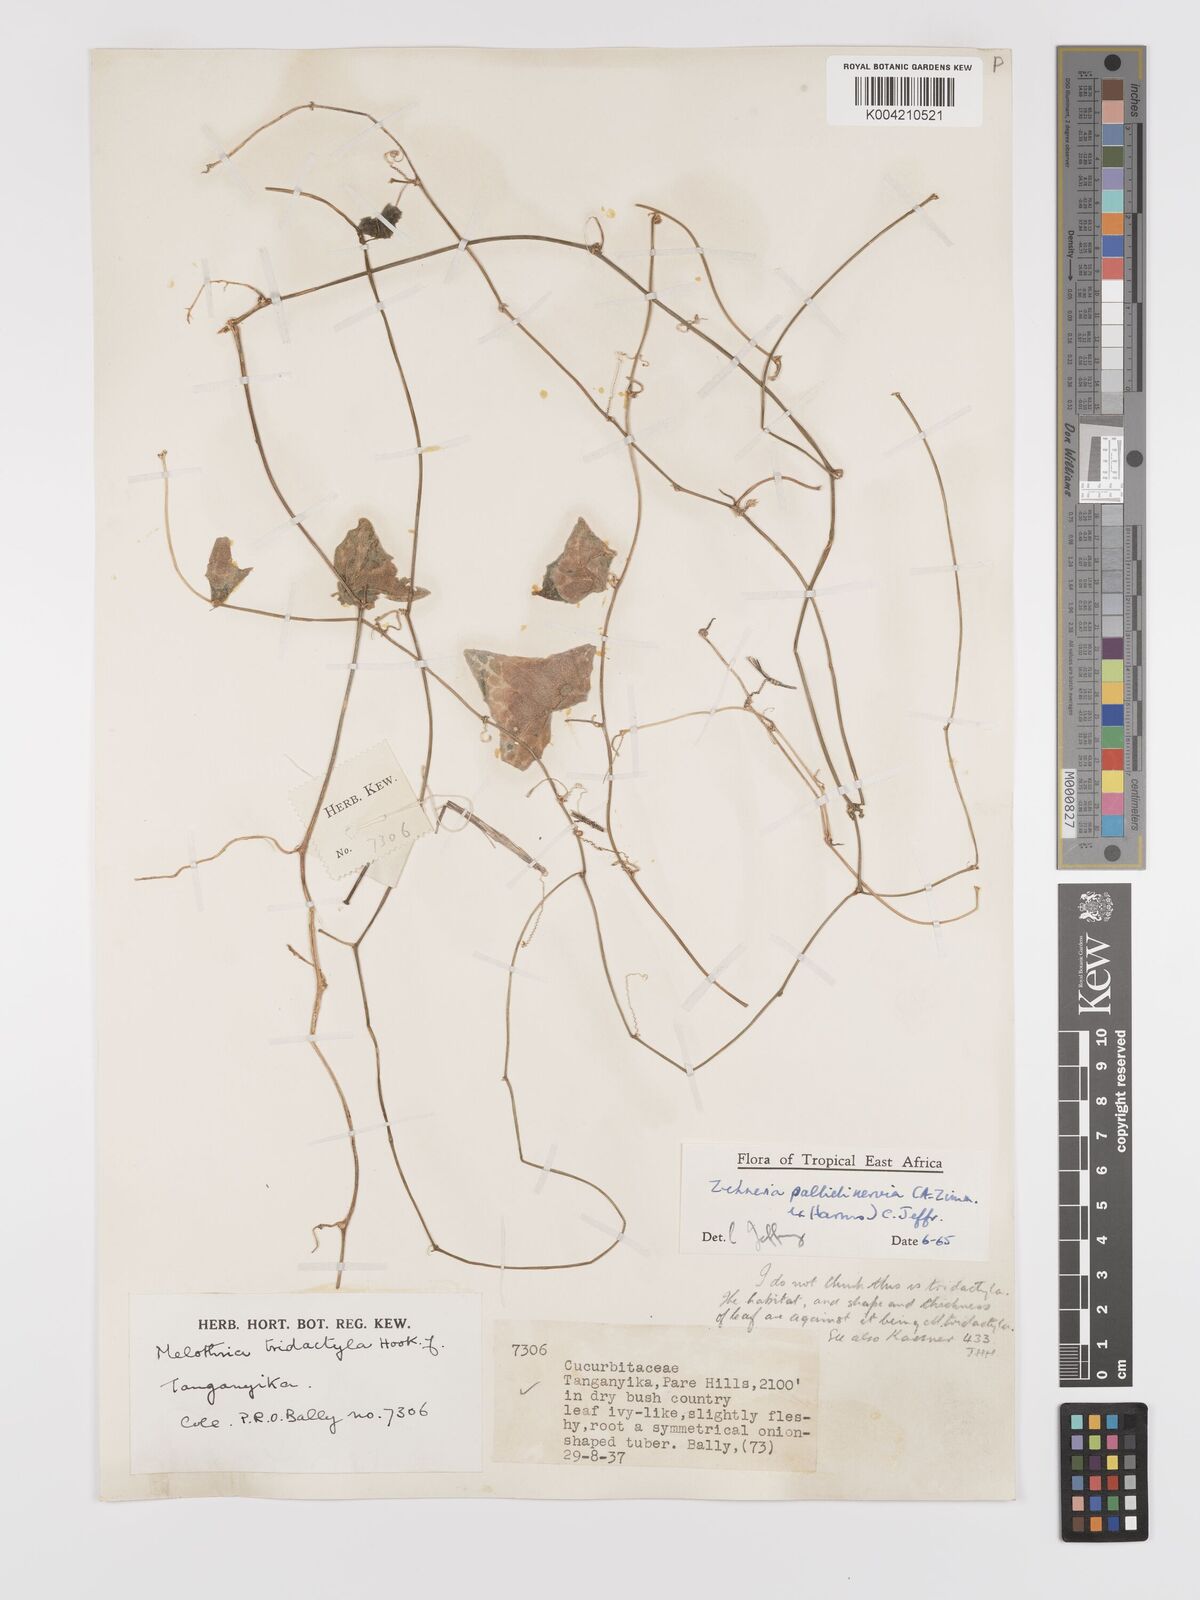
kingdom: Plantae
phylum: Tracheophyta
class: Magnoliopsida
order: Cucurbitales
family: Cucurbitaceae
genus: Zehneria
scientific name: Zehneria pallidinervia
